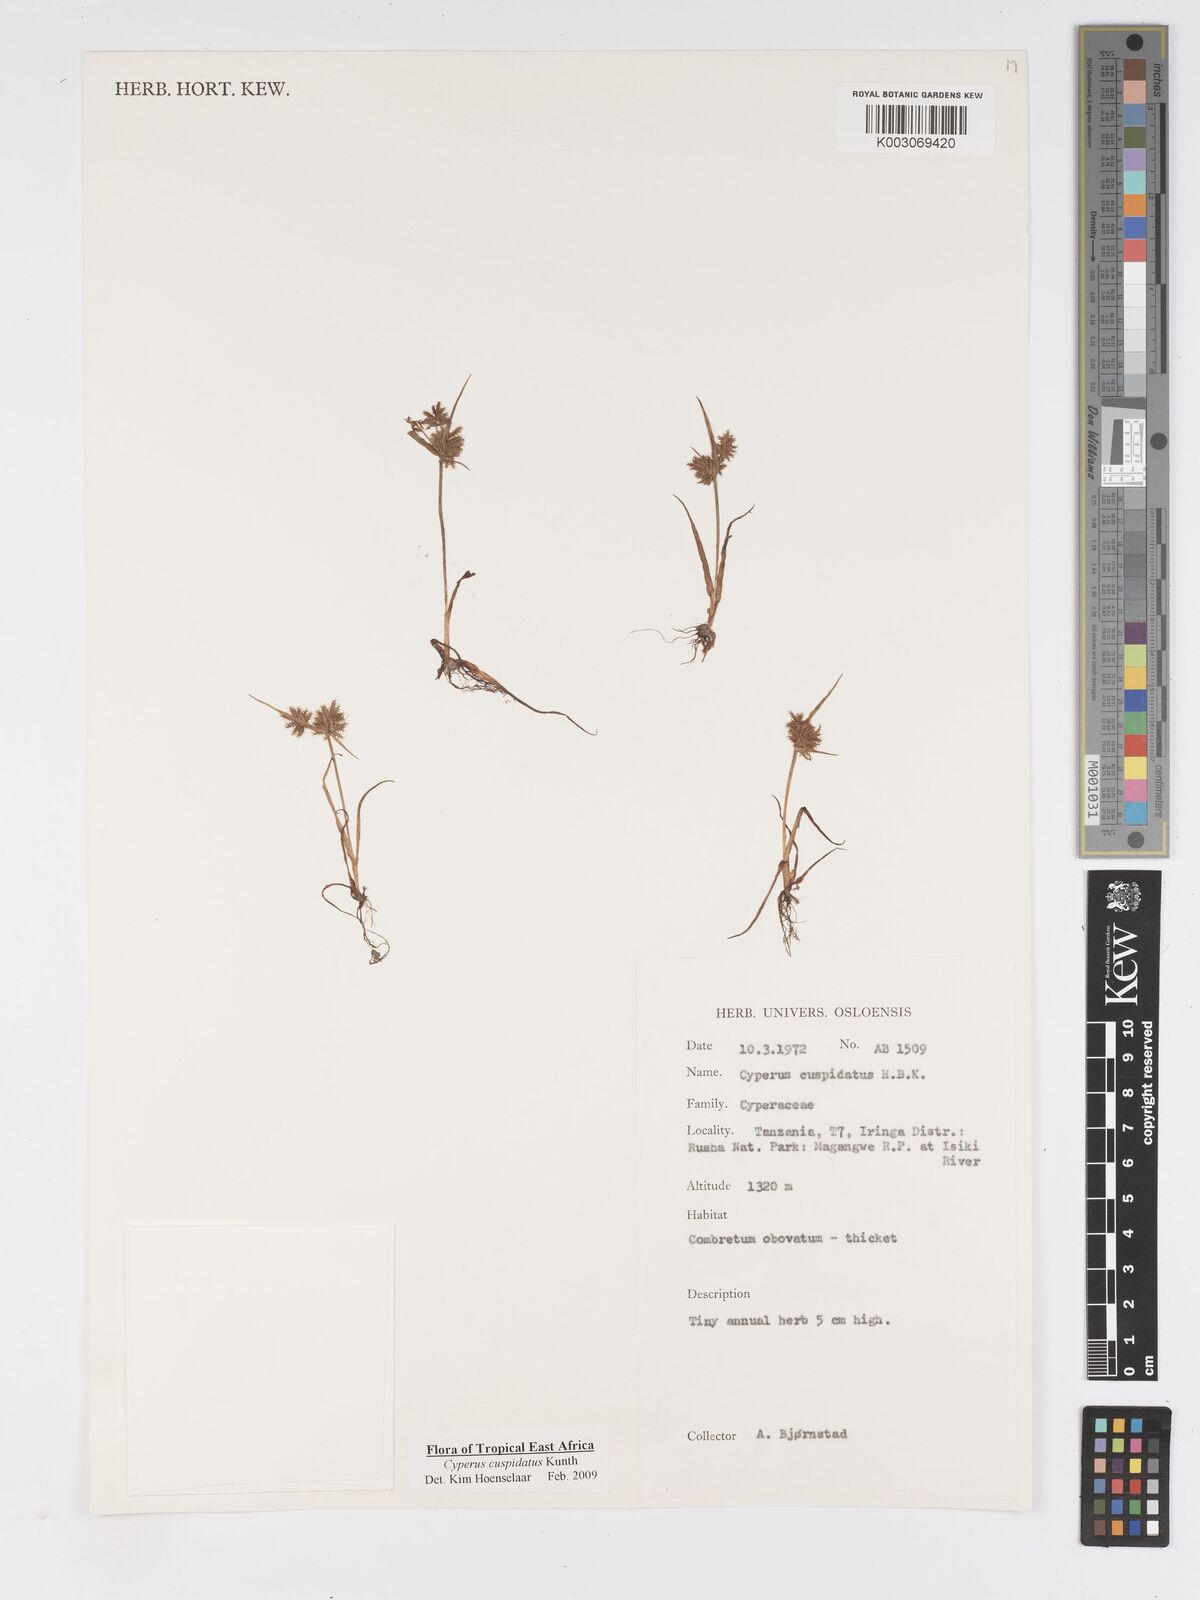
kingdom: Plantae
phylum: Tracheophyta
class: Liliopsida
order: Poales
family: Cyperaceae
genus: Cyperus
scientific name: Cyperus cuspidatus
